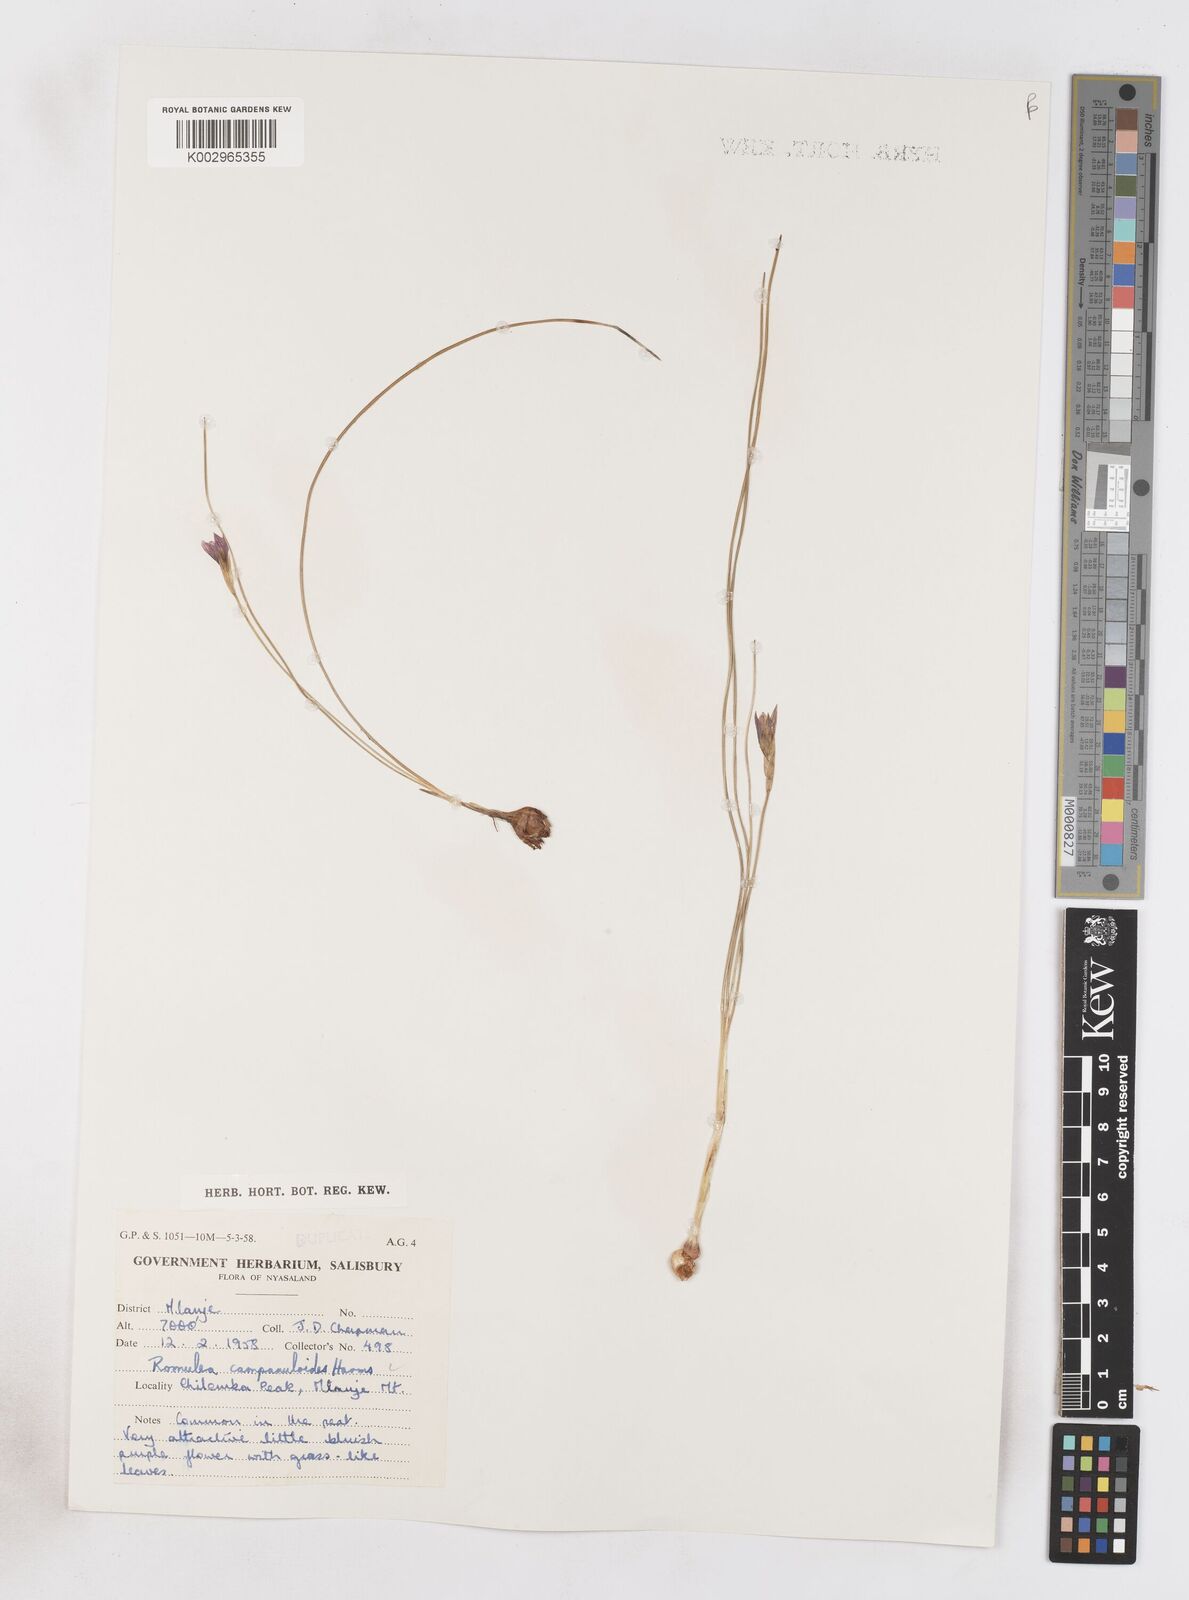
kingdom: Plantae
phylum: Tracheophyta
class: Liliopsida
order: Asparagales
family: Iridaceae
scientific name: Iridaceae
